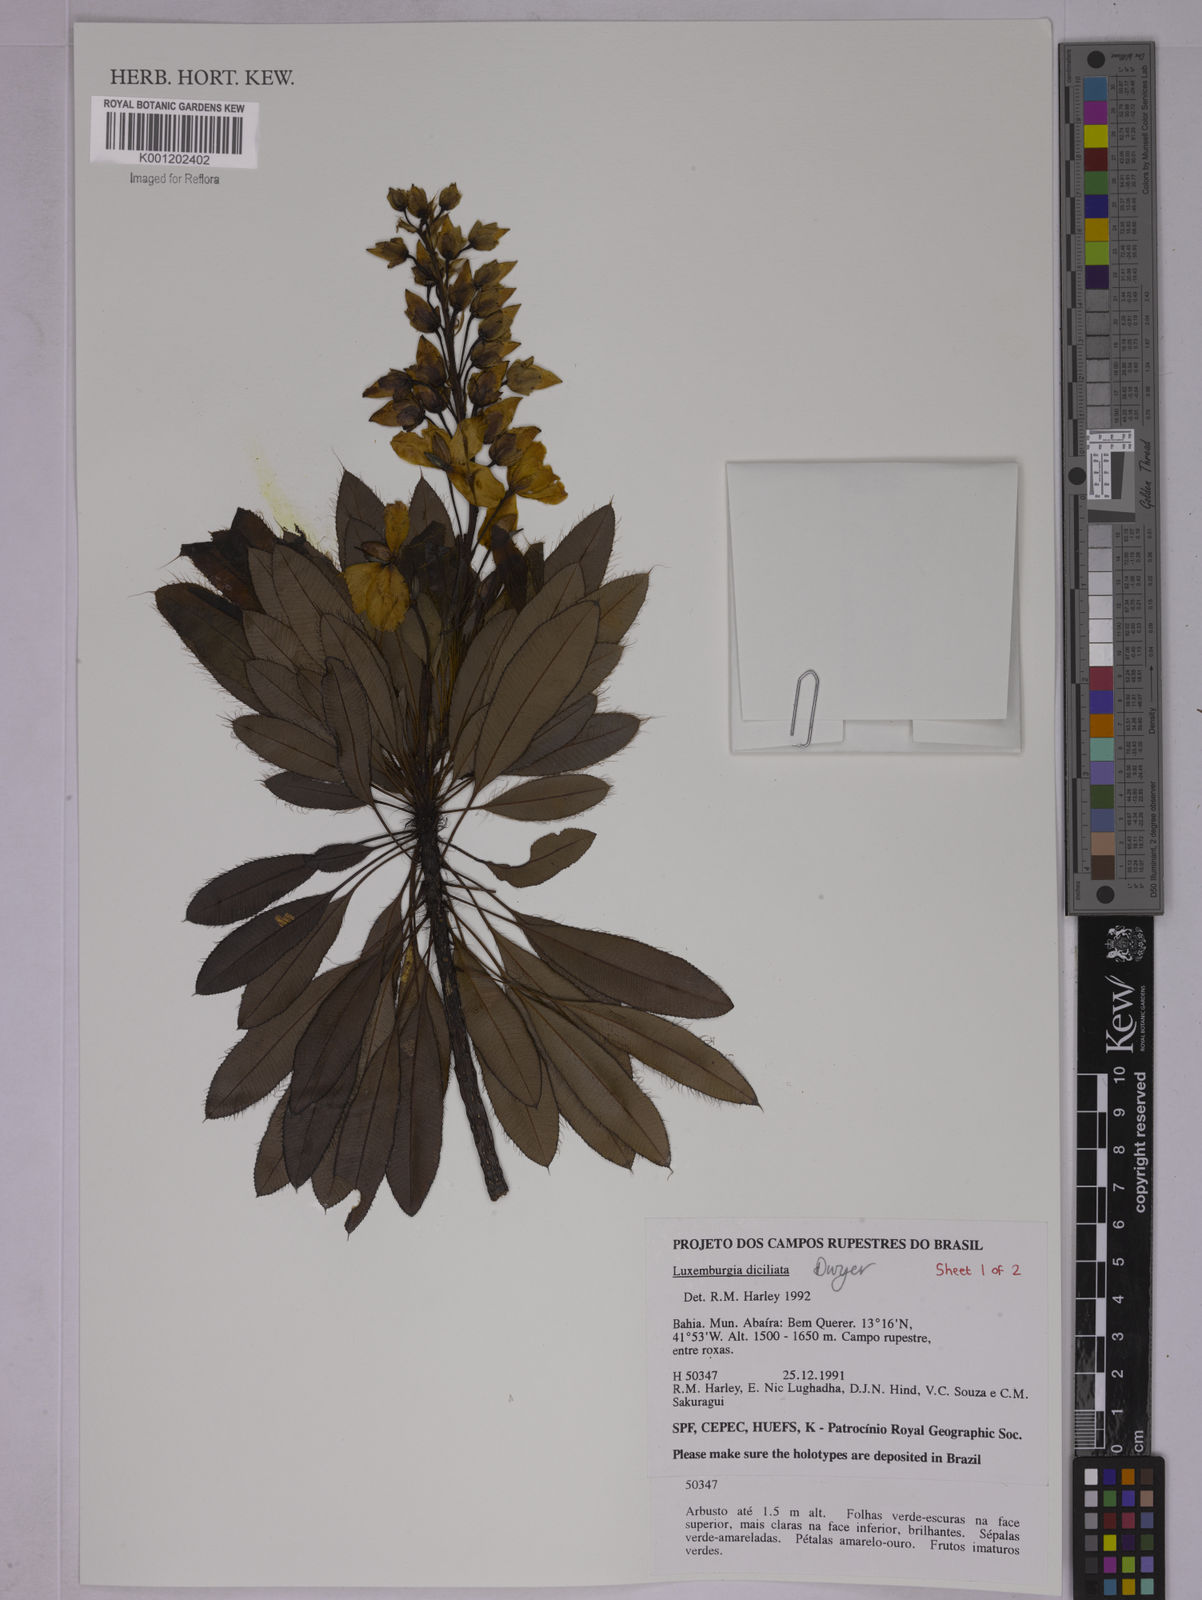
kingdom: Plantae
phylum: Tracheophyta
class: Magnoliopsida
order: Malpighiales
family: Ochnaceae
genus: Luxemburgia
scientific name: Luxemburgia diciliata
